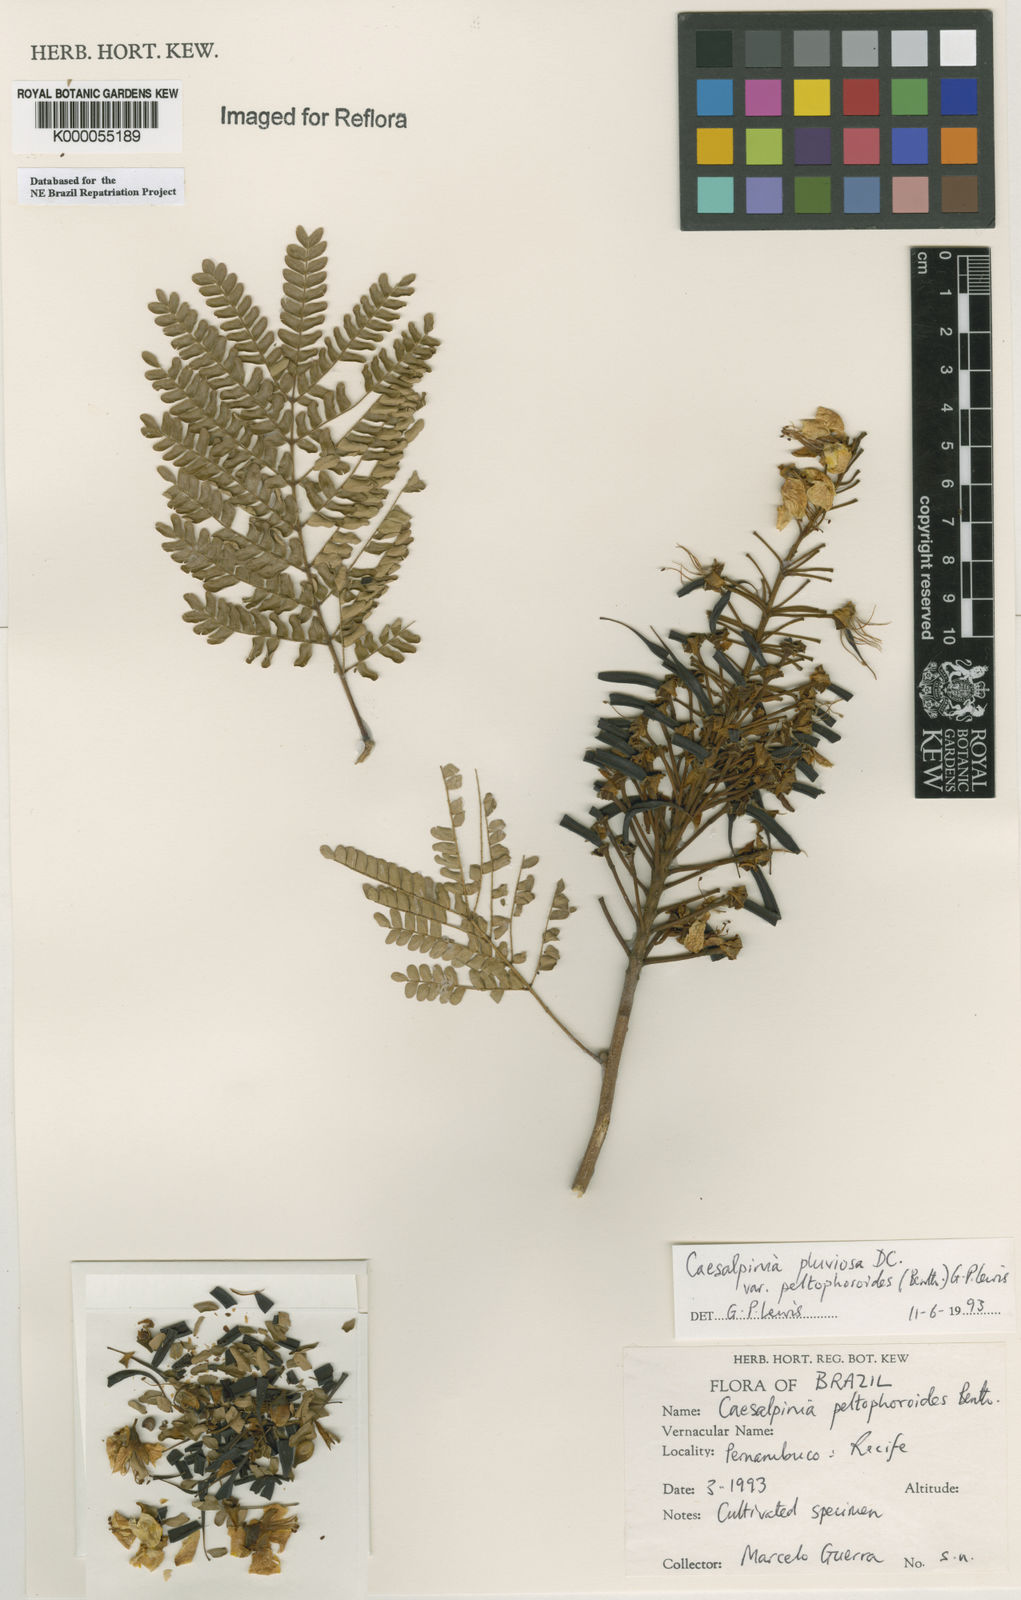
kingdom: Plantae
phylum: Tracheophyta
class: Magnoliopsida
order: Fabales
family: Fabaceae
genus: Cenostigma
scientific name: Cenostigma pluviosum
